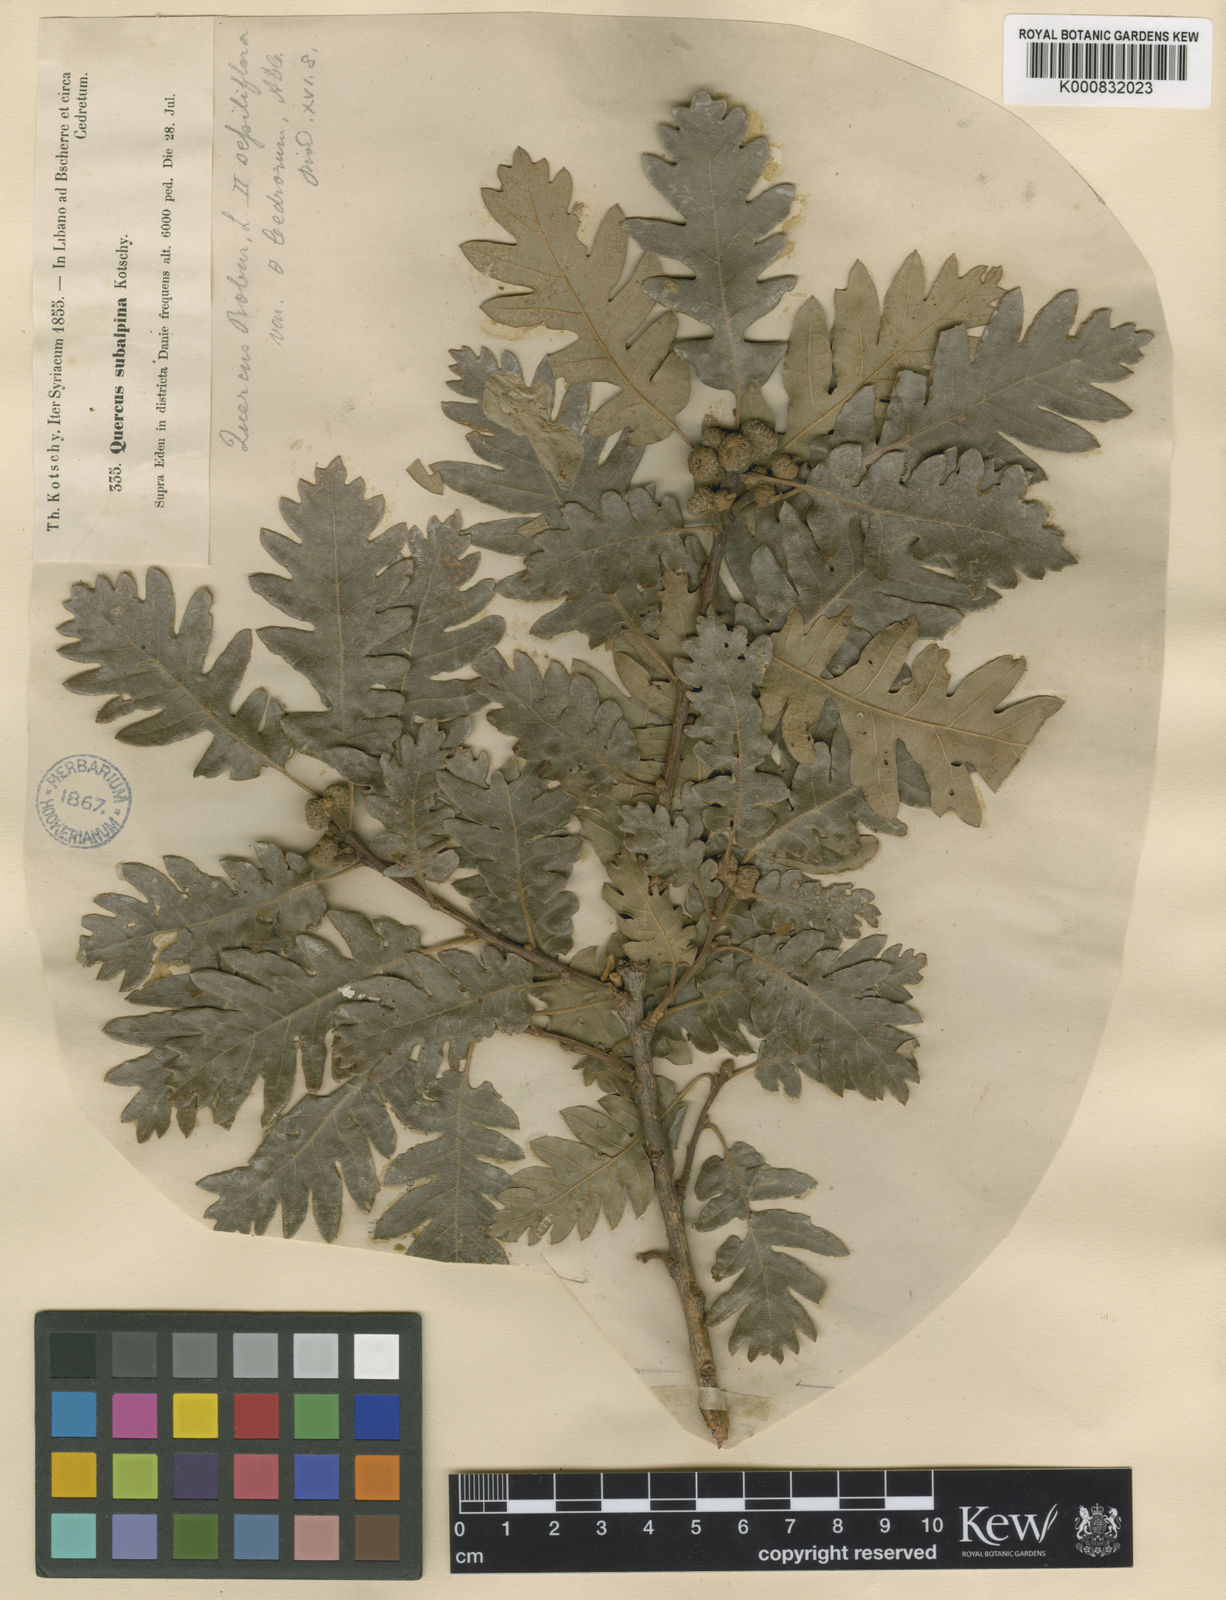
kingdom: Plantae
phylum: Tracheophyta
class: Magnoliopsida
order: Fagales
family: Fagaceae
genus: Quercus
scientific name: Quercus petraea
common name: Sessile oak
